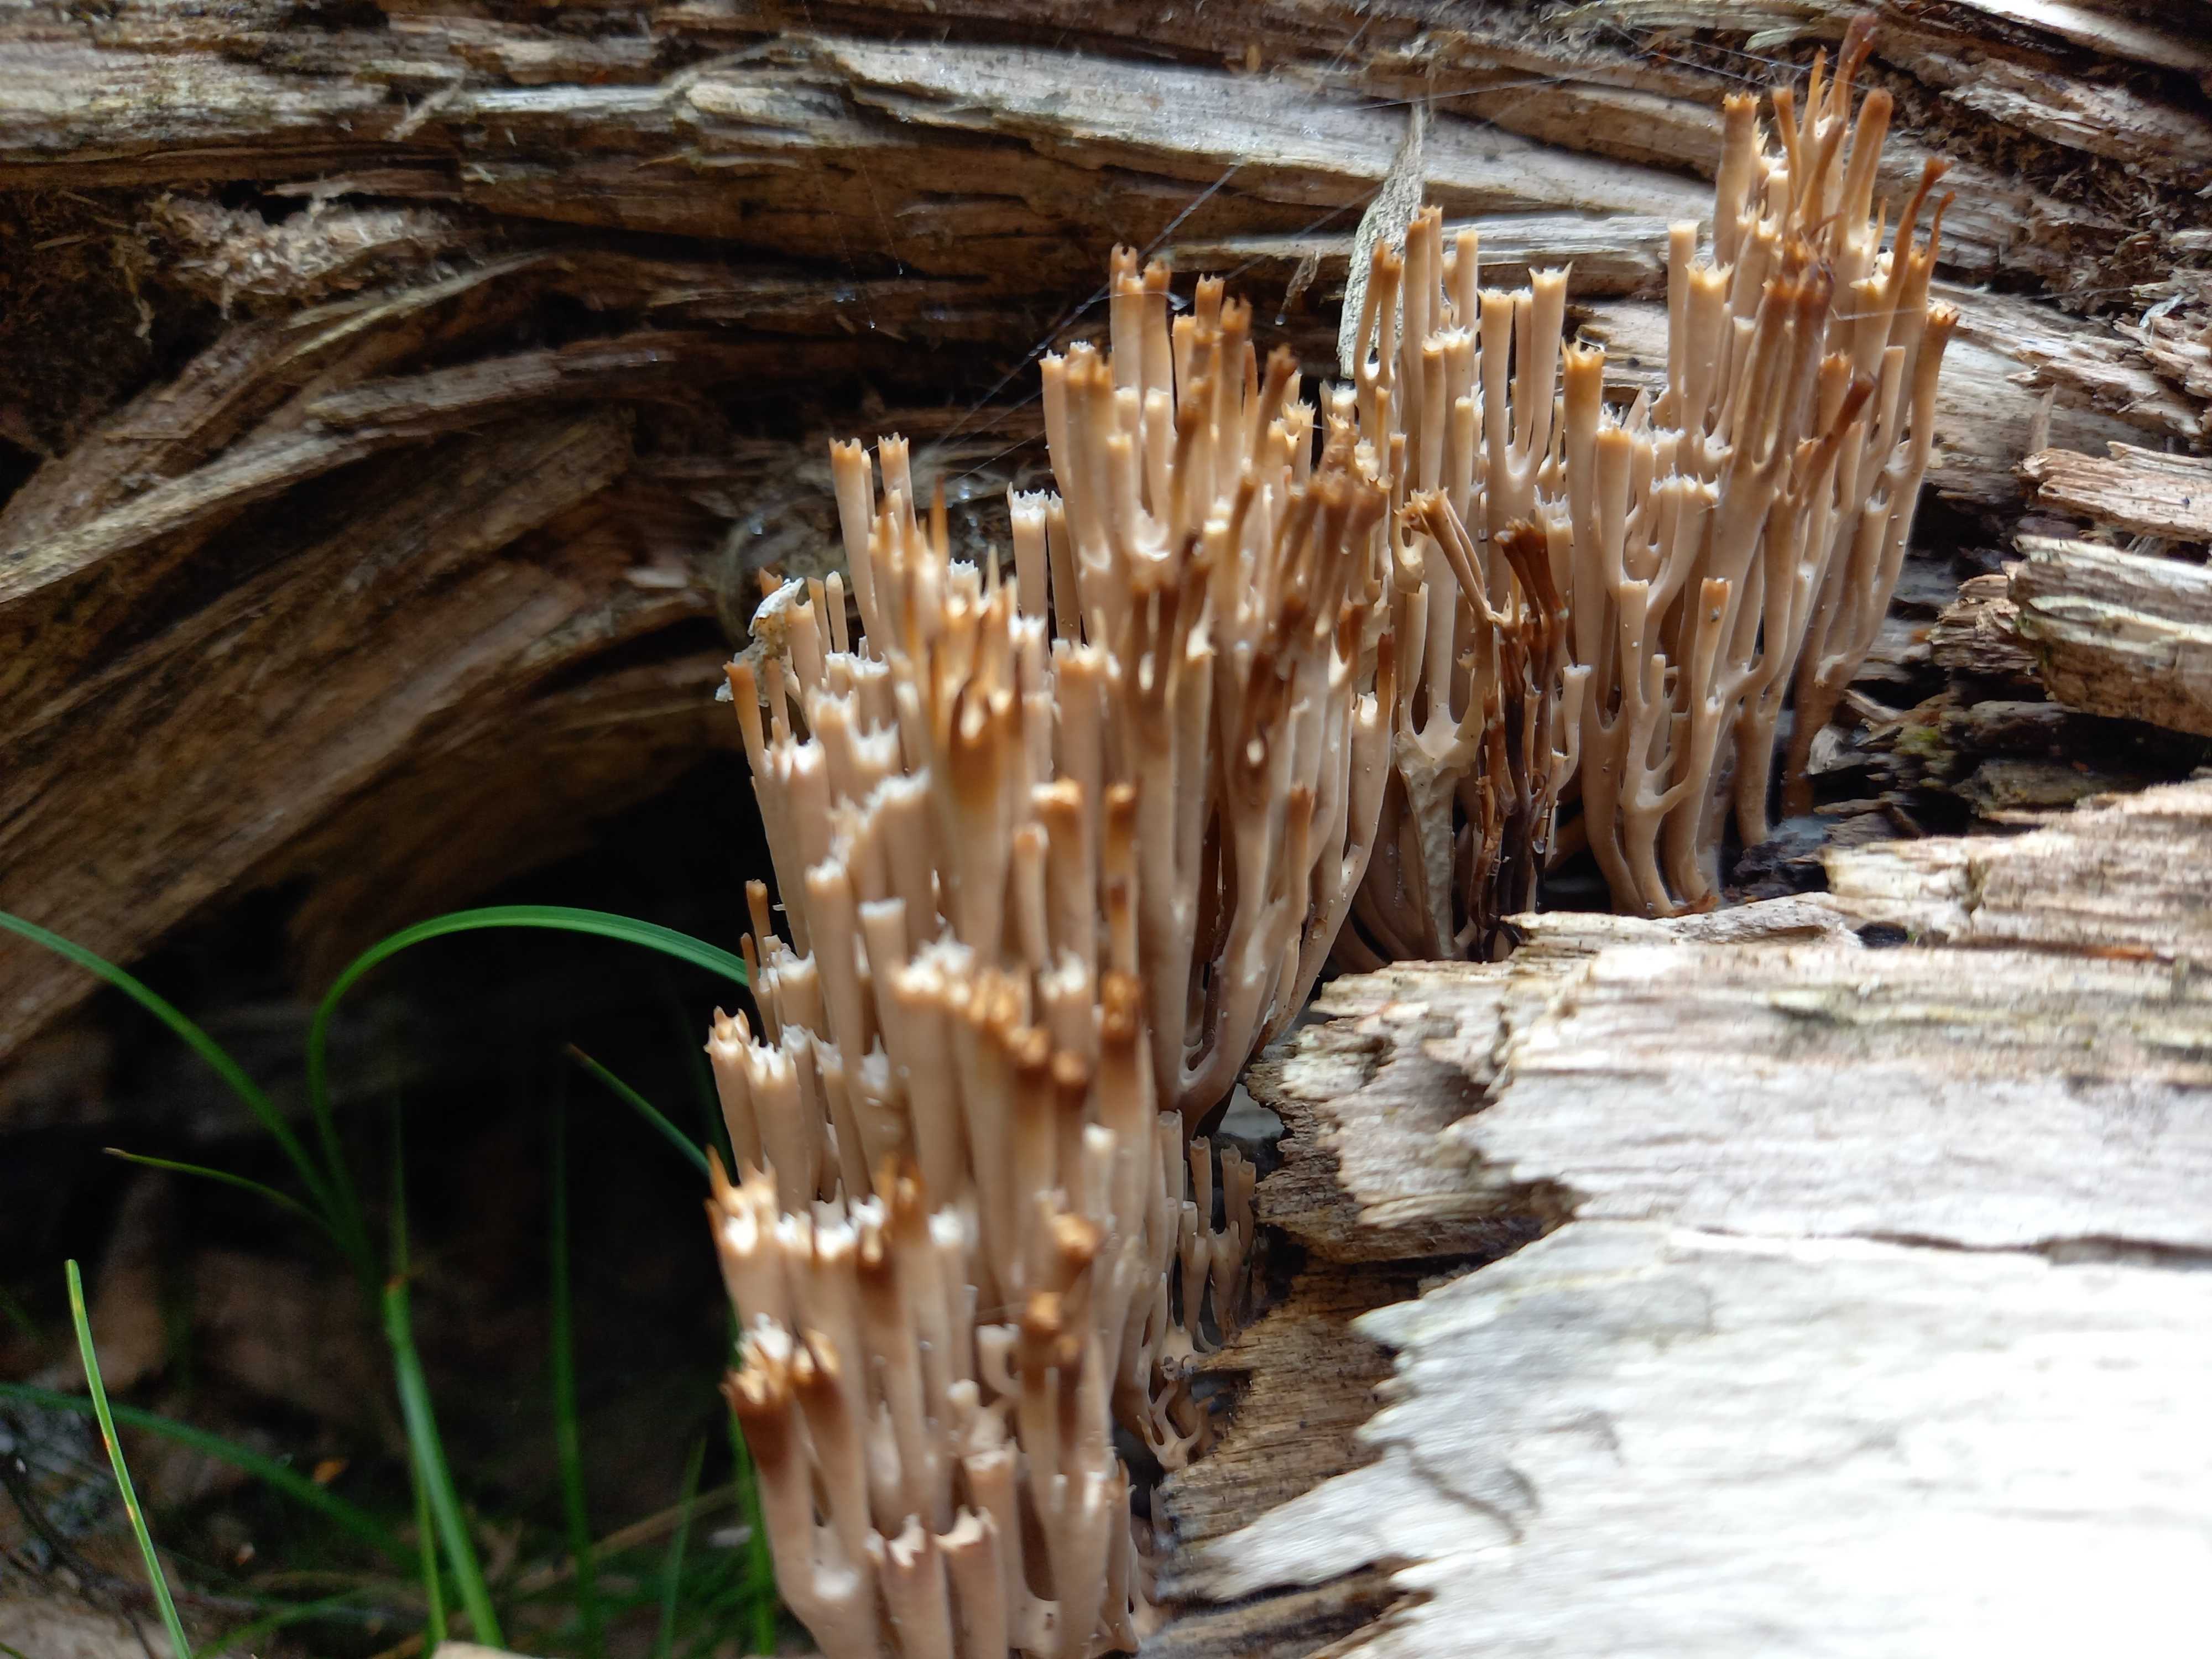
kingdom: Fungi
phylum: Basidiomycota
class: Agaricomycetes
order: Russulales
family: Auriscalpiaceae
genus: Artomyces
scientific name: Artomyces pyxidatus
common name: kandelabersvamp
